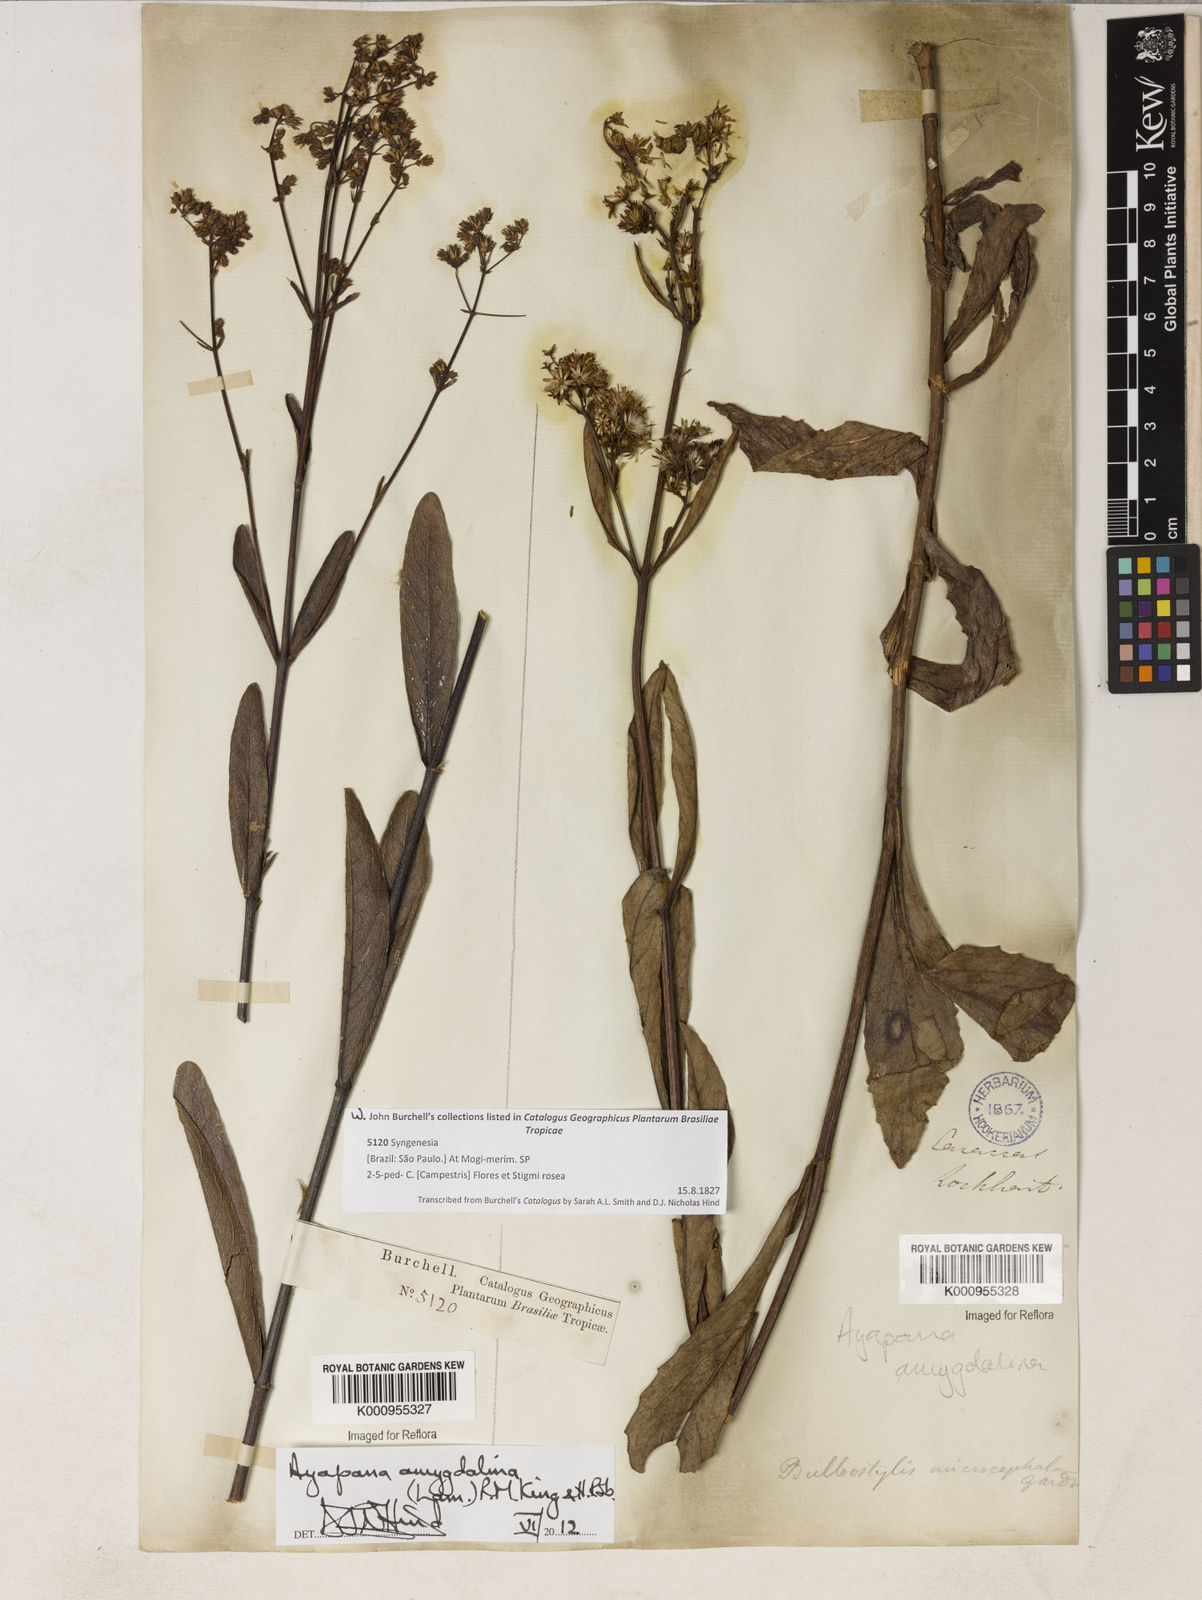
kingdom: Plantae
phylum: Tracheophyta
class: Magnoliopsida
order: Asterales
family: Asteraceae
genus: Ayapana
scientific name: Ayapana amygdalina
